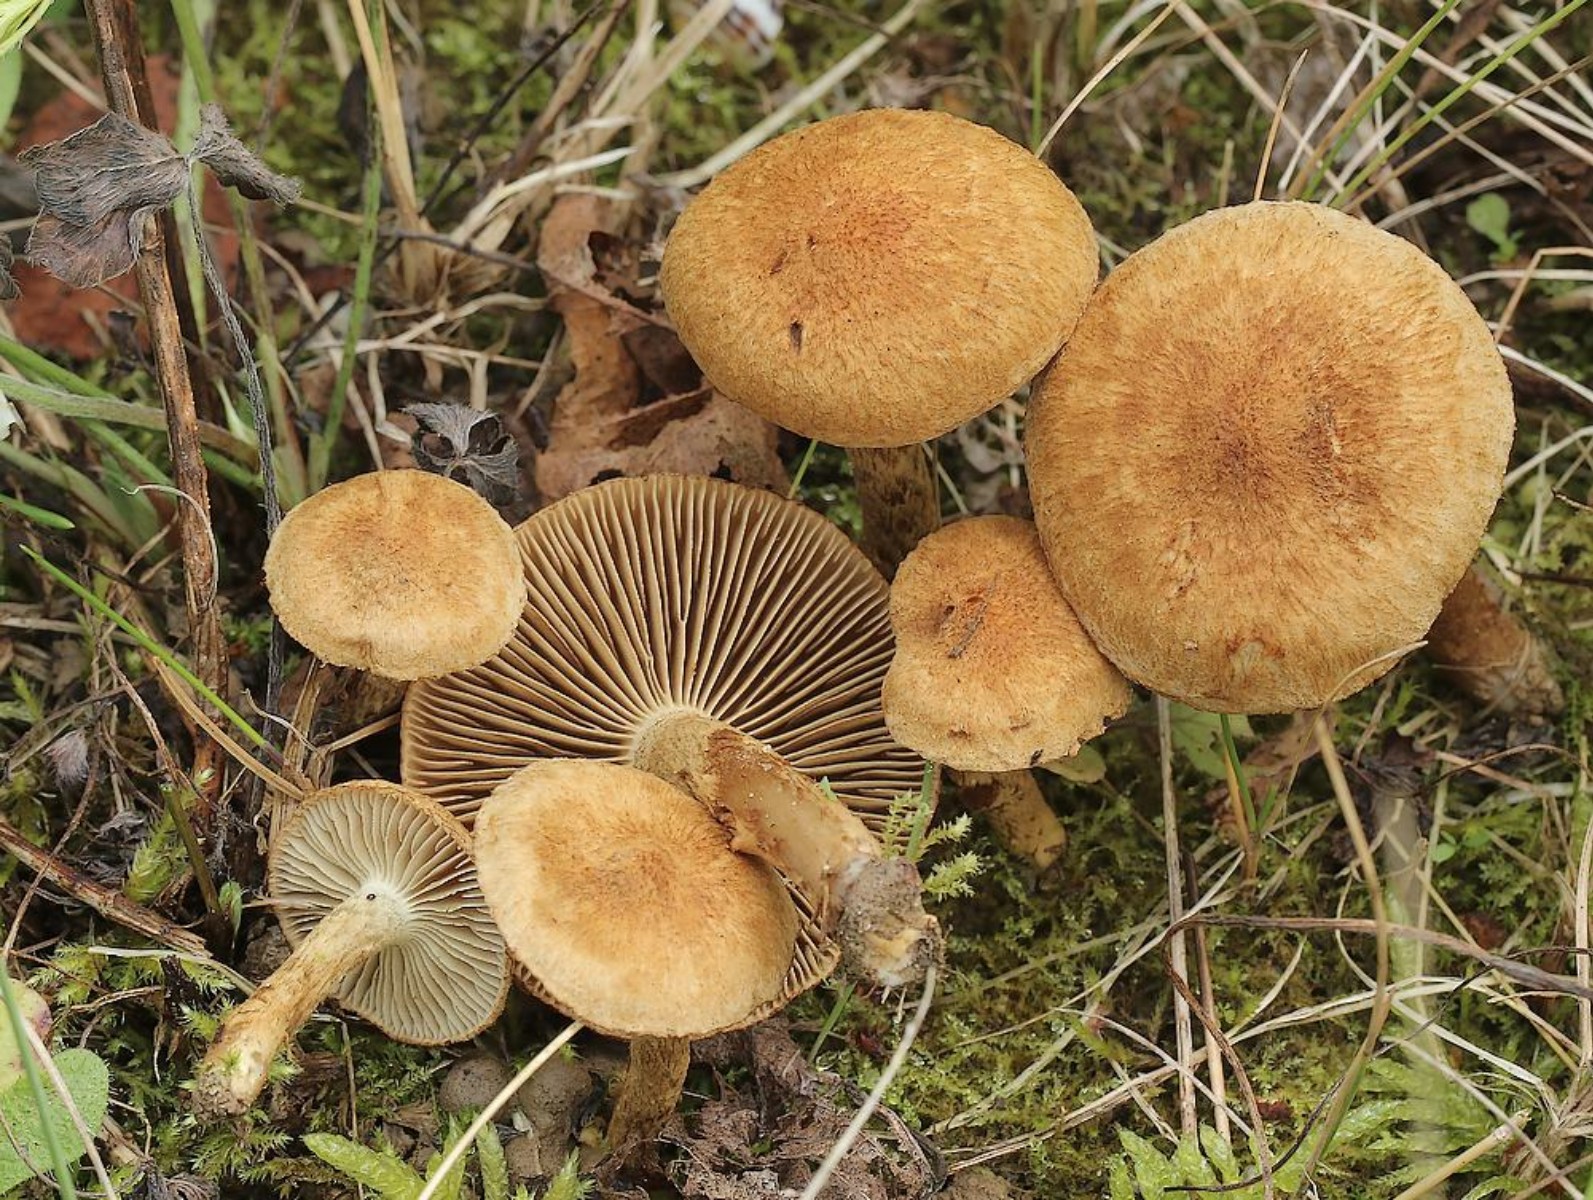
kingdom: Fungi
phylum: Basidiomycota
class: Agaricomycetes
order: Agaricales
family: Inocybaceae
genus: Mallocybe
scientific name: Mallocybe plebeia
